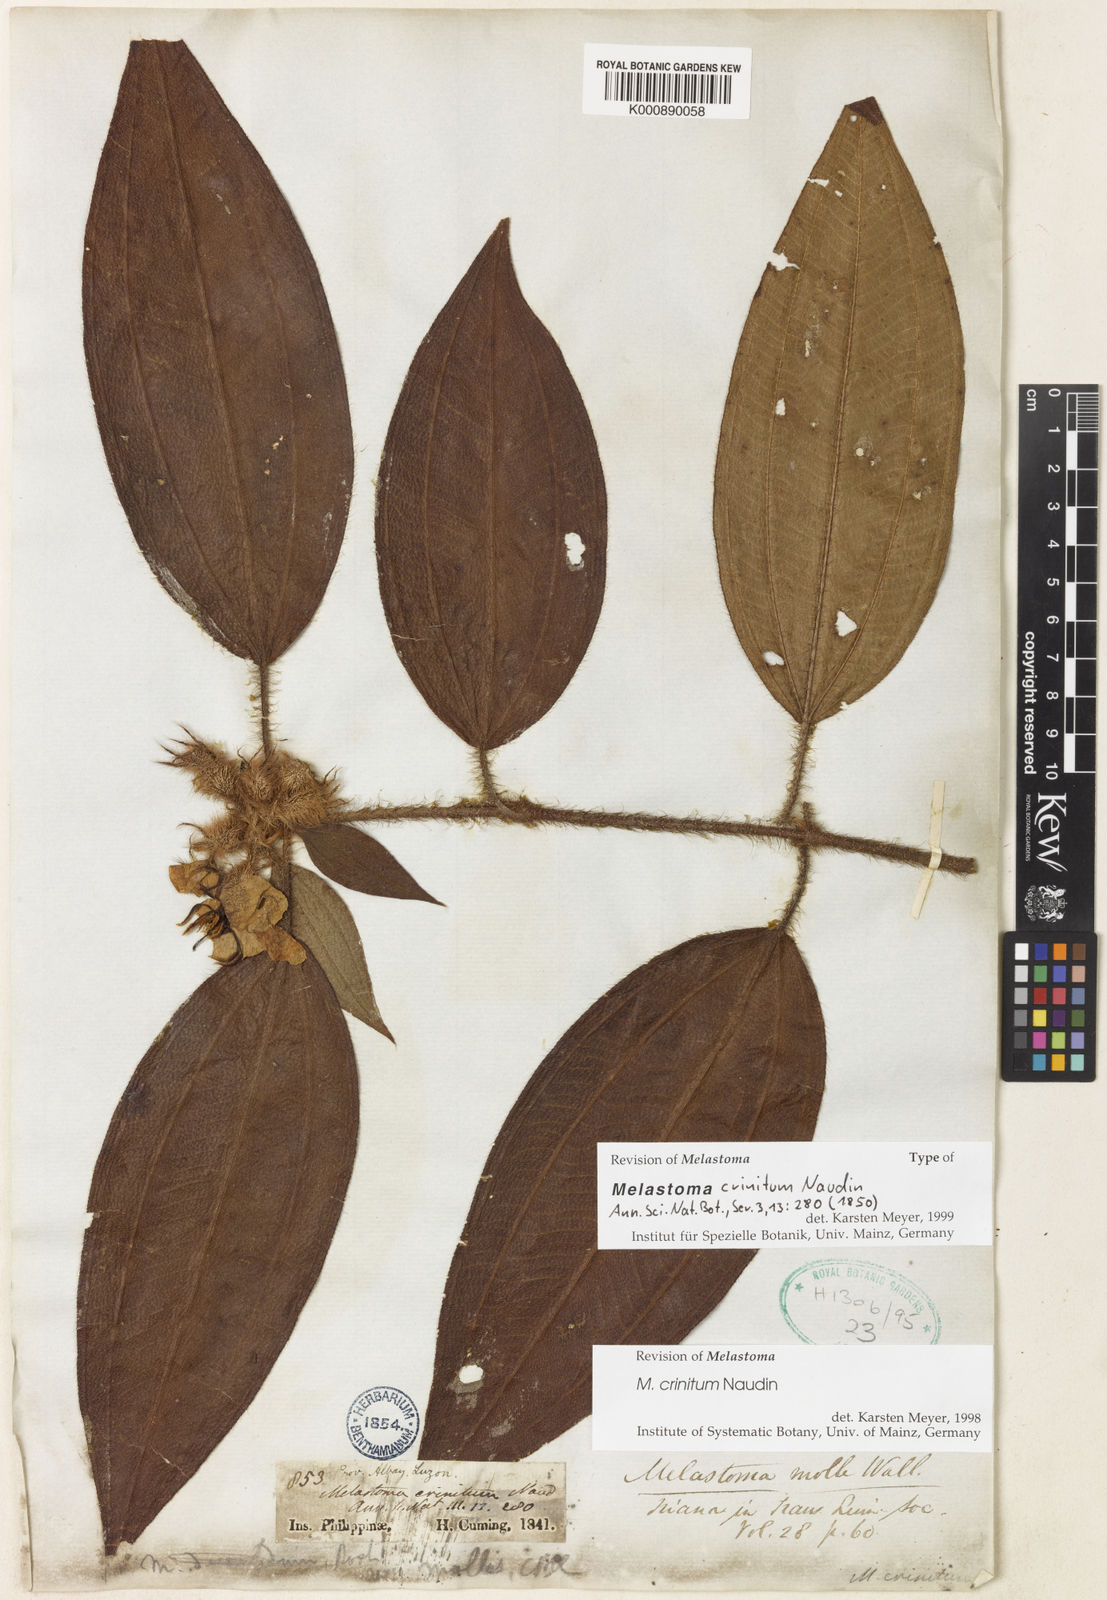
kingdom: Plantae
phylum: Tracheophyta
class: Magnoliopsida
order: Myrtales
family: Melastomataceae
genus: Melastoma
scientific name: Melastoma penicillatum
